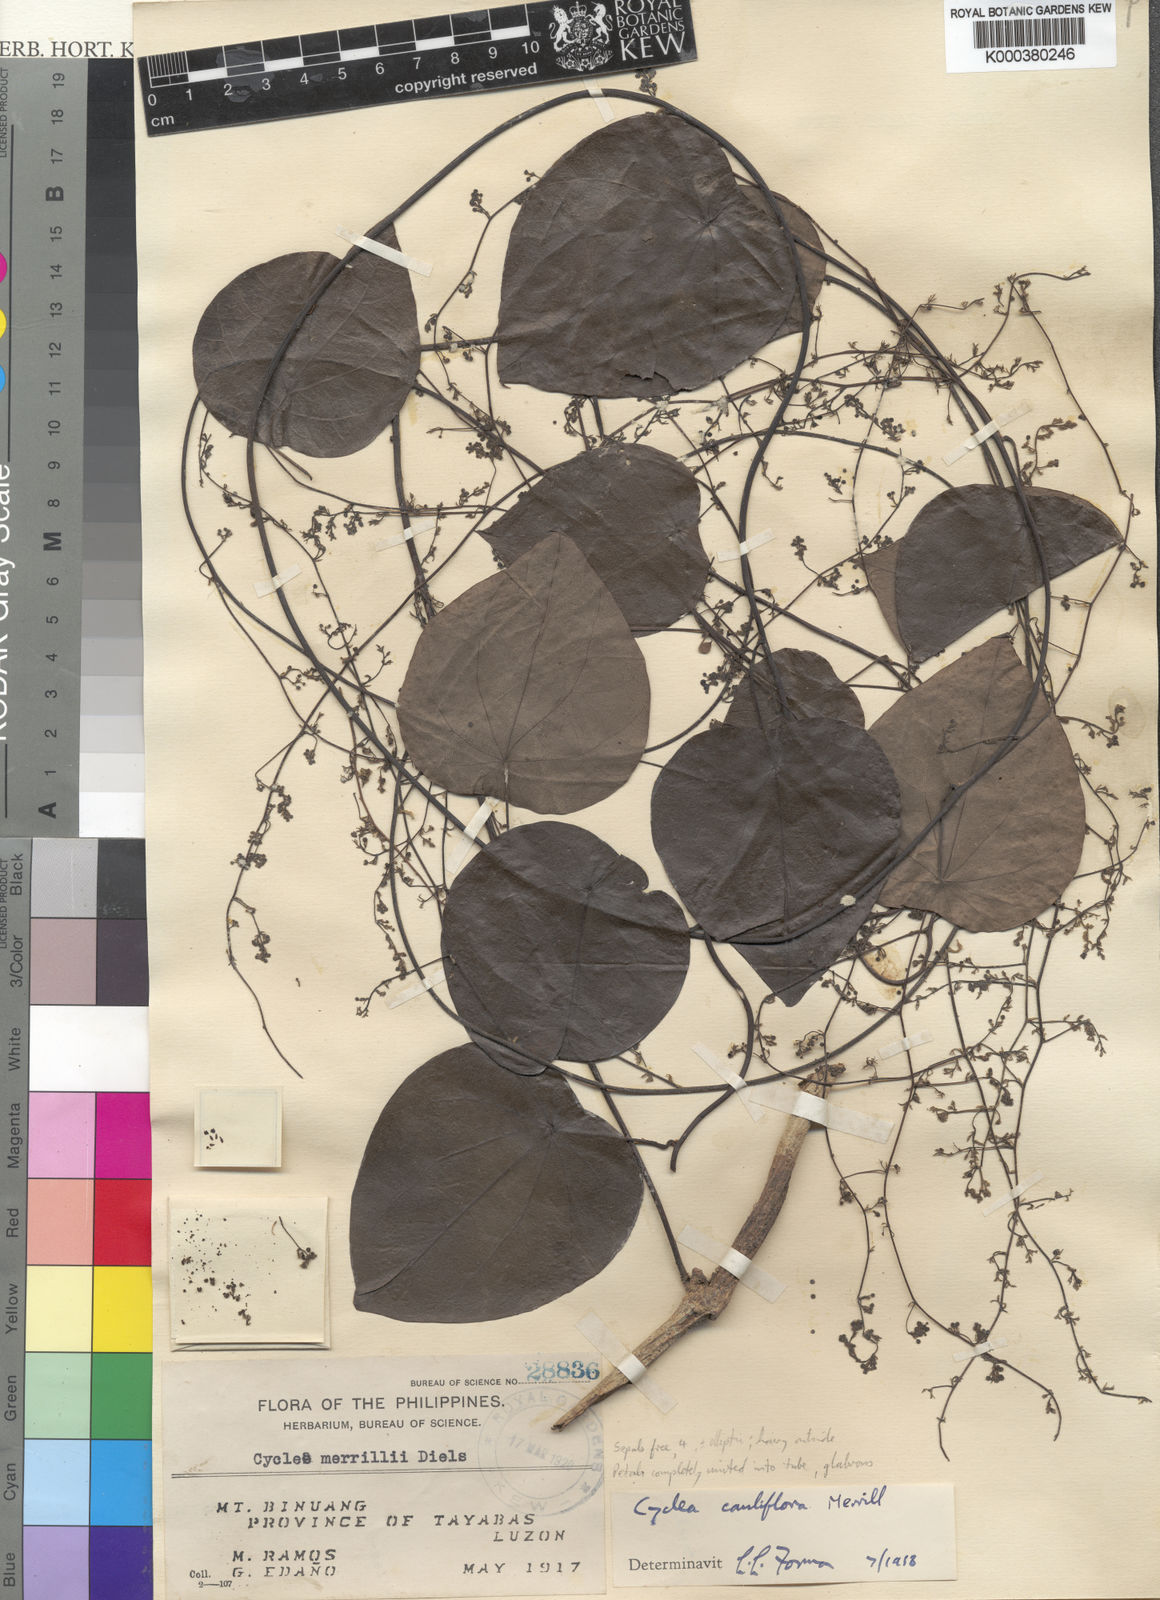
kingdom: Plantae
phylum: Tracheophyta
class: Magnoliopsida
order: Ranunculales
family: Menispermaceae
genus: Cyclea
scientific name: Cyclea cauliflora
